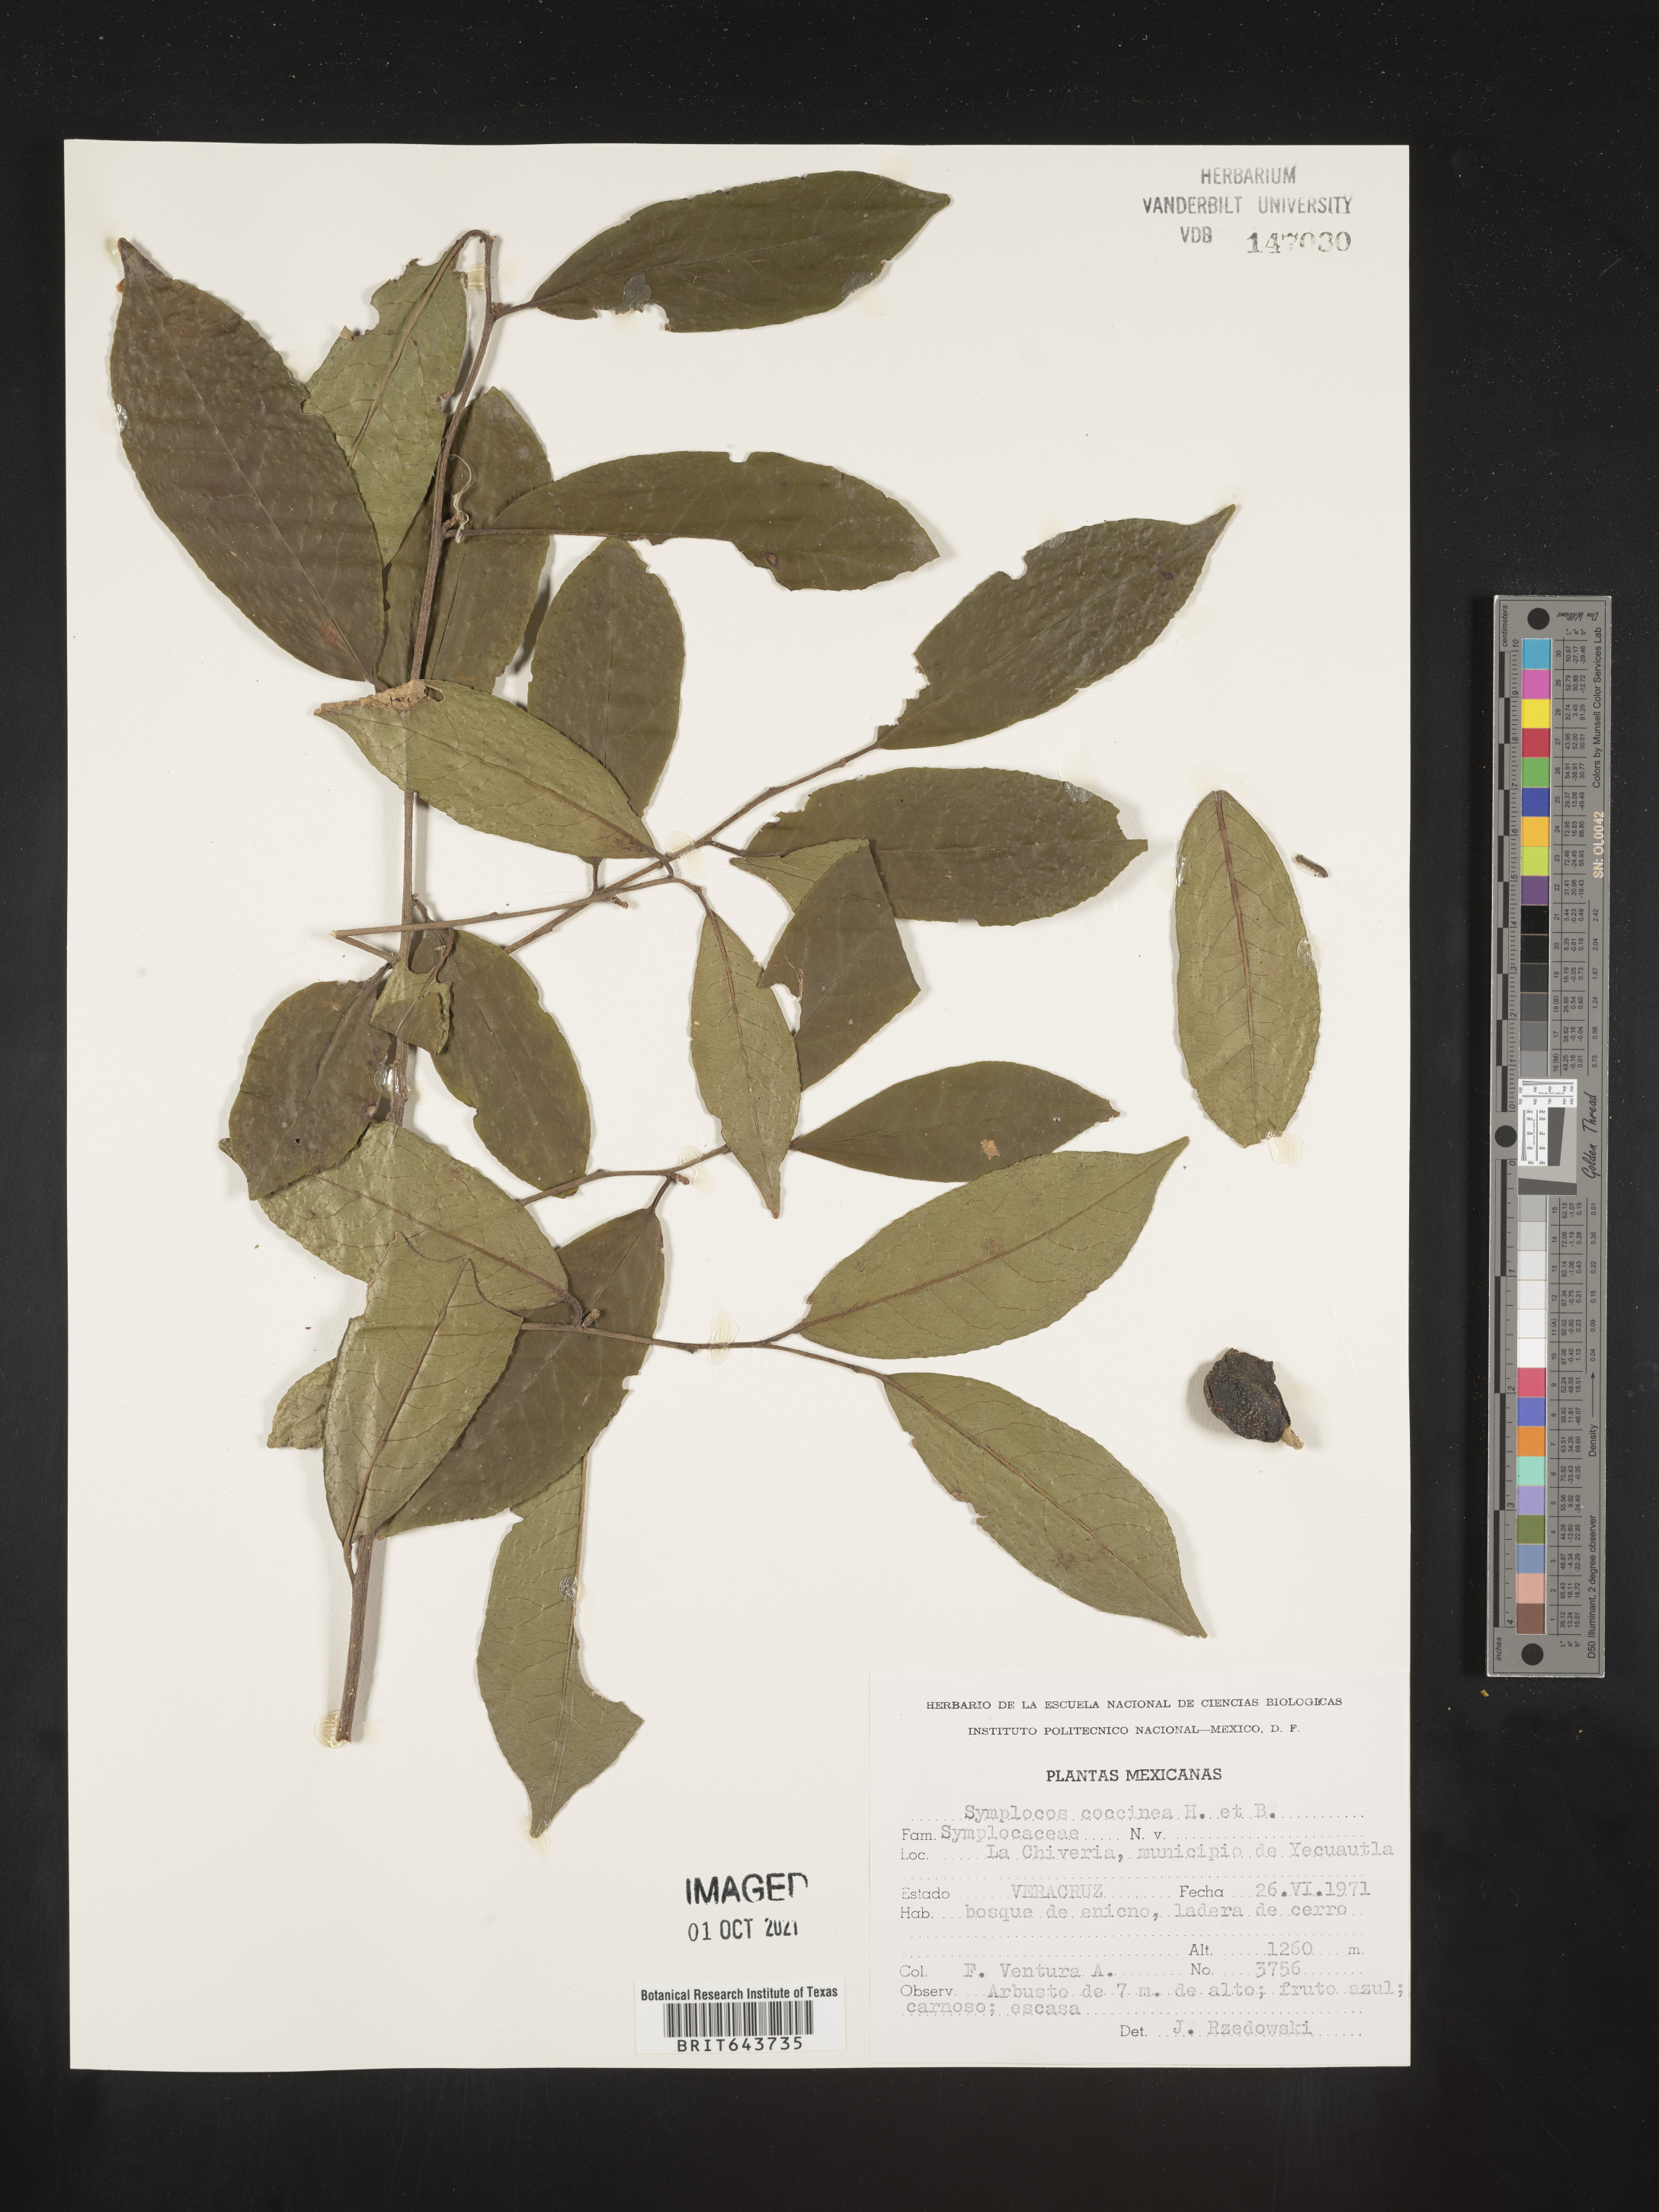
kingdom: Plantae
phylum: Tracheophyta
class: Magnoliopsida
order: Ericales
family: Symplocaceae
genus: Symplocos
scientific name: Symplocos
